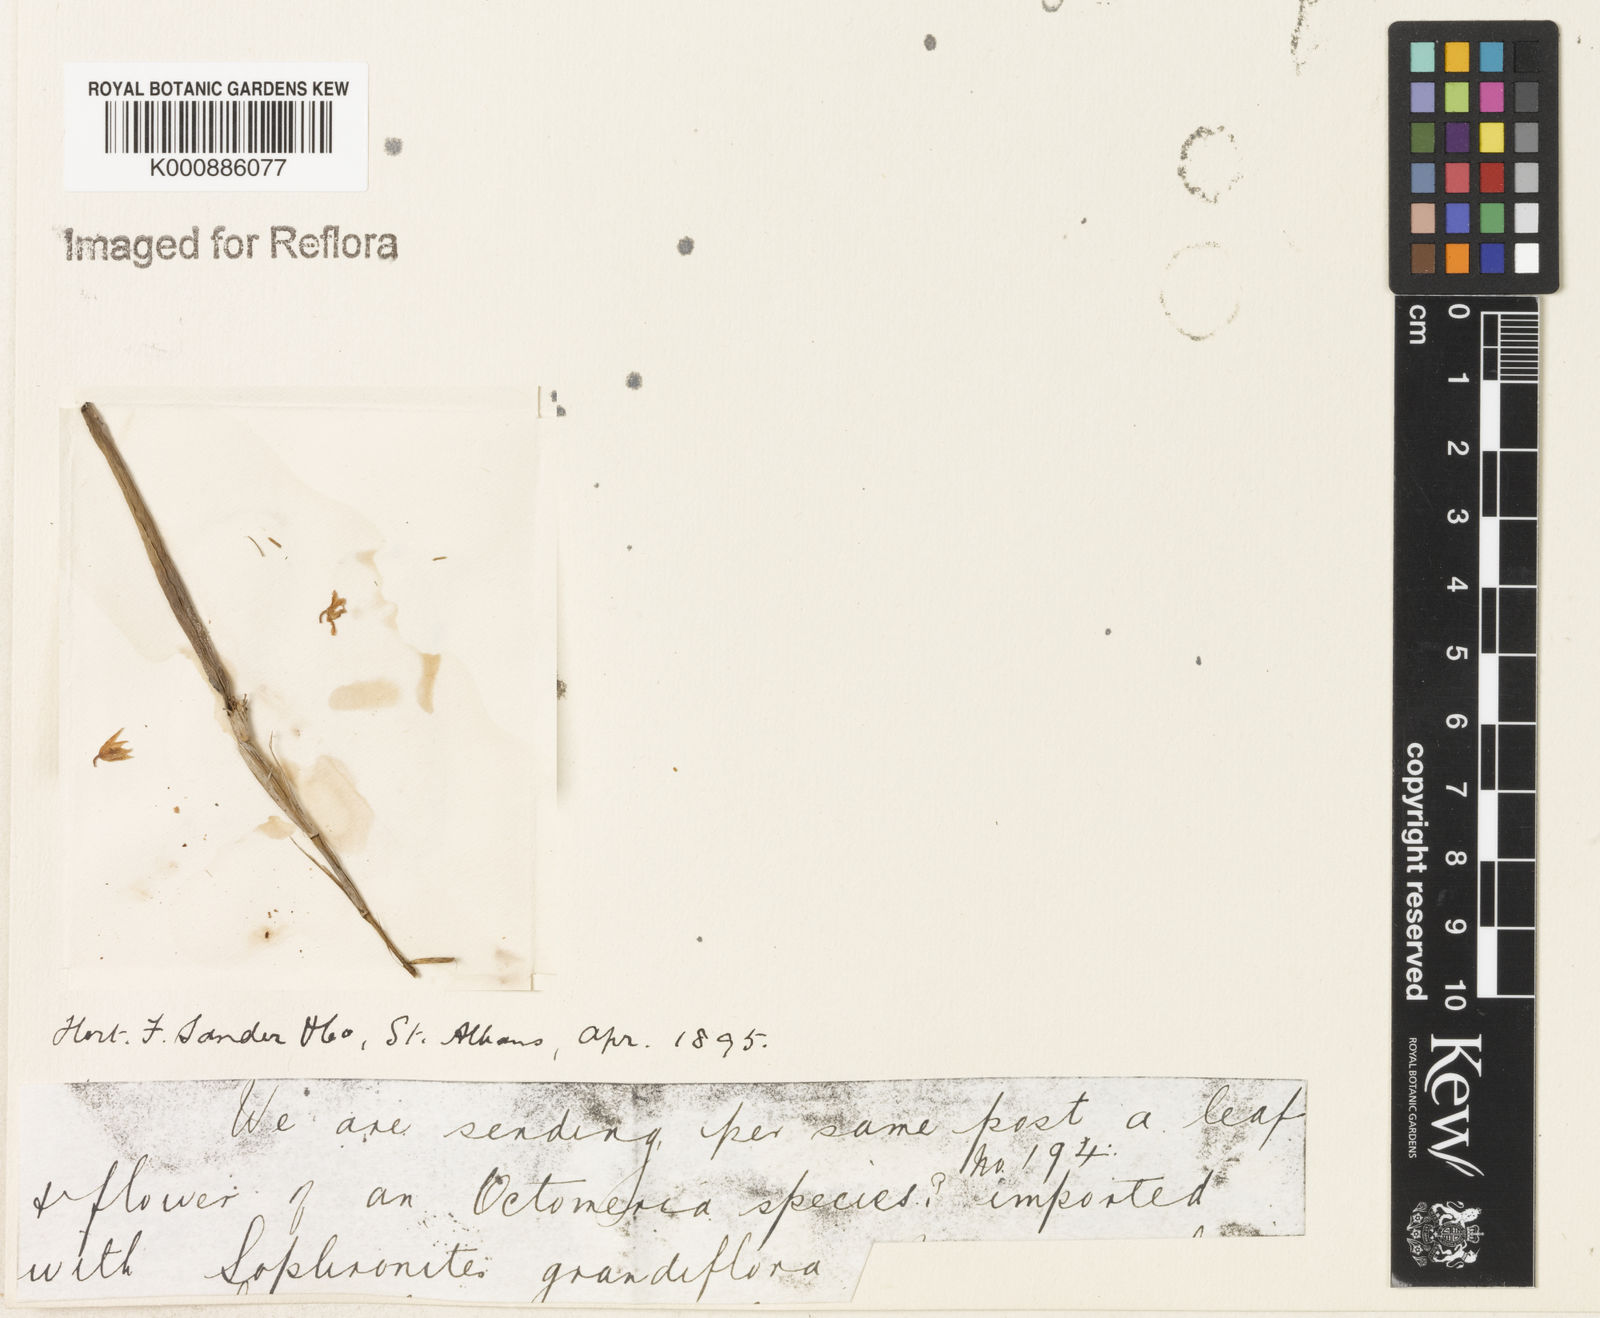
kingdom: Plantae
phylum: Tracheophyta
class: Liliopsida
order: Asparagales
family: Orchidaceae
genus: Octomeria
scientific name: Octomeria
